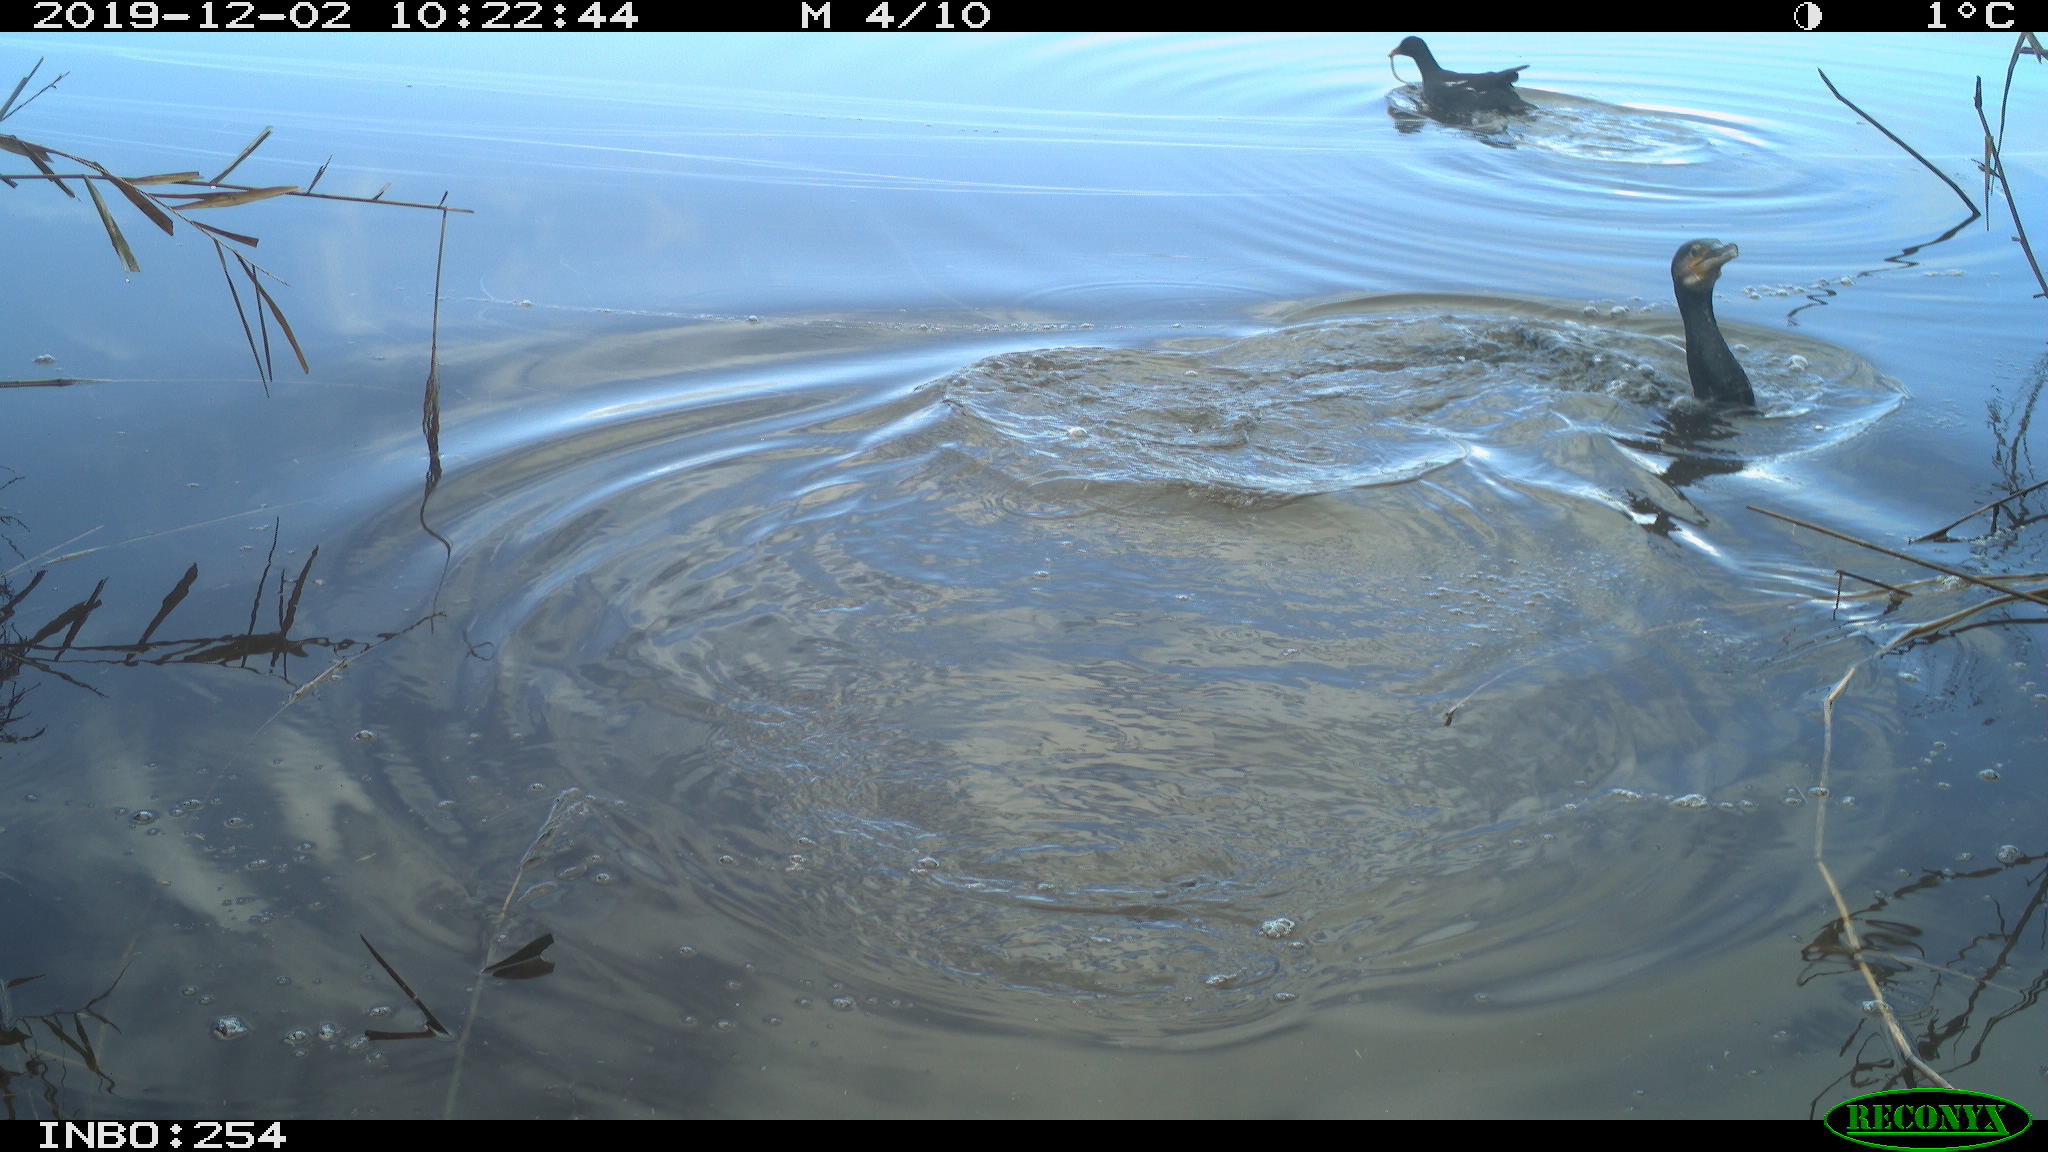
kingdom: Animalia
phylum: Chordata
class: Aves
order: Suliformes
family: Phalacrocoracidae
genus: Phalacrocorax
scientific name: Phalacrocorax carbo
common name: Great cormorant
